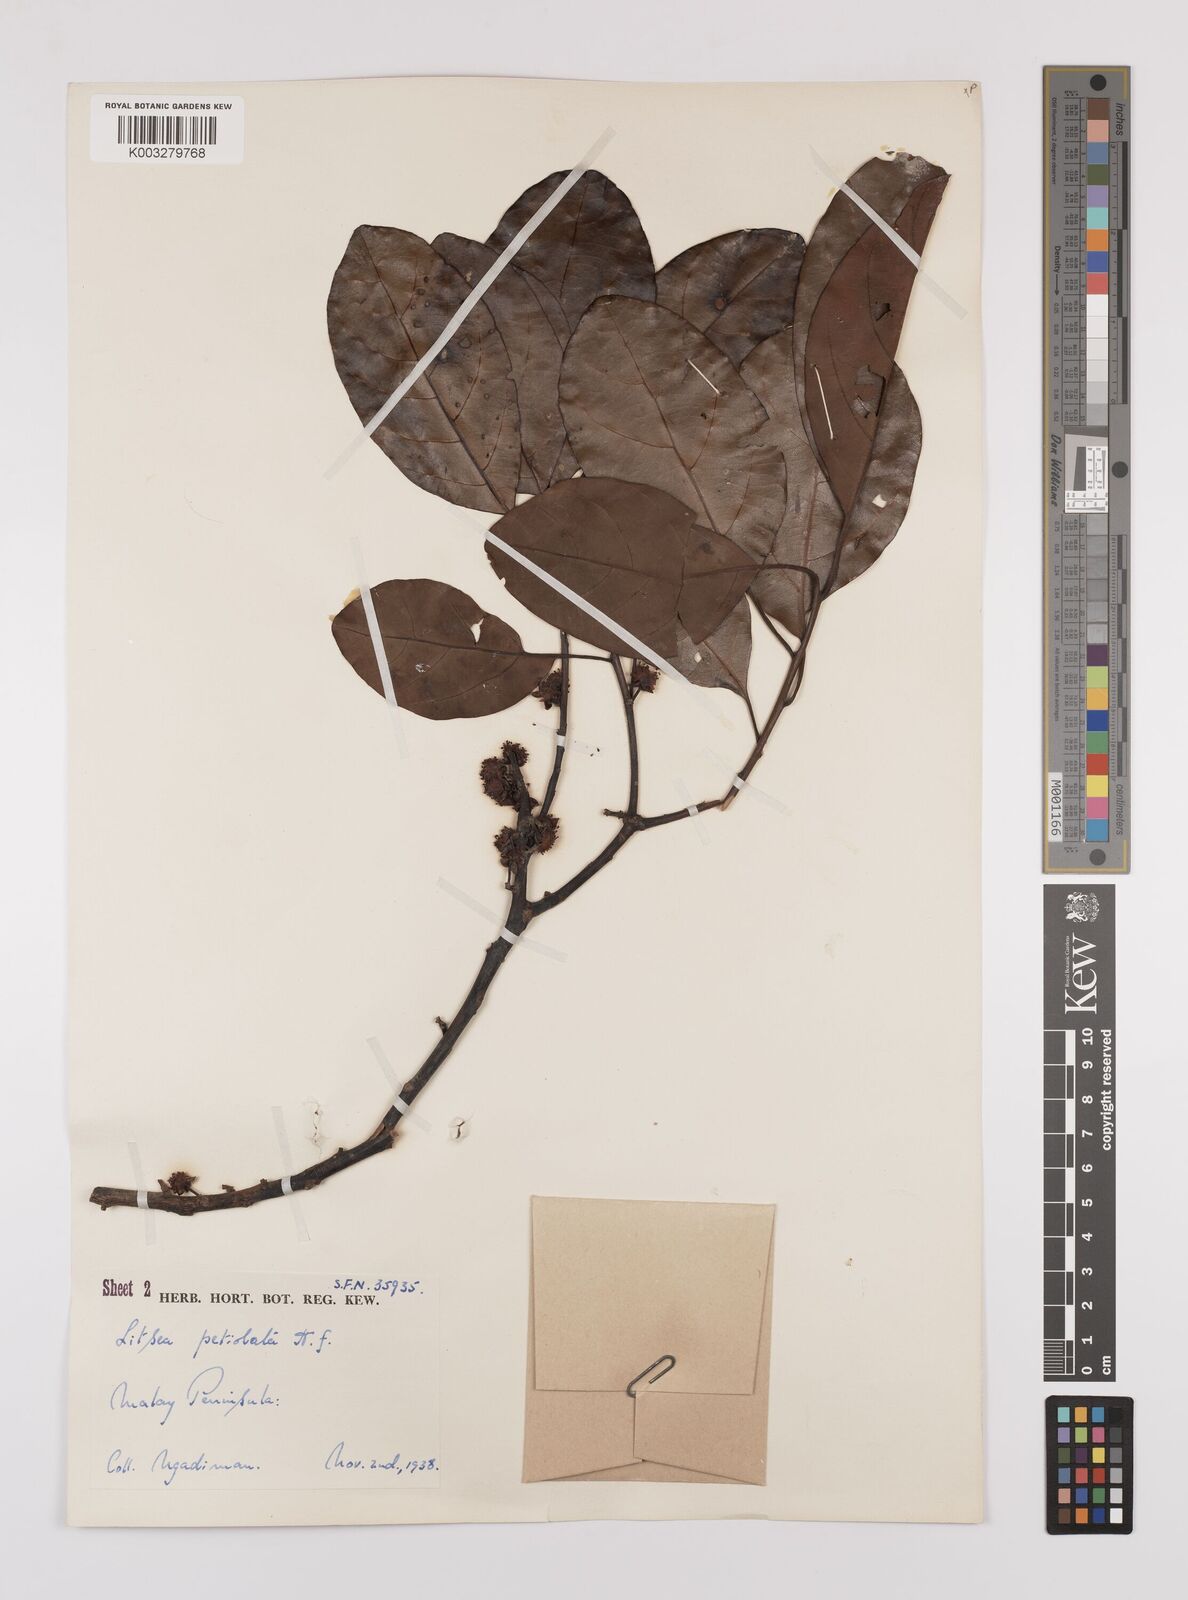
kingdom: Plantae
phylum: Tracheophyta
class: Magnoliopsida
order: Laurales
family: Lauraceae
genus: Litsea
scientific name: Litsea elliptica
